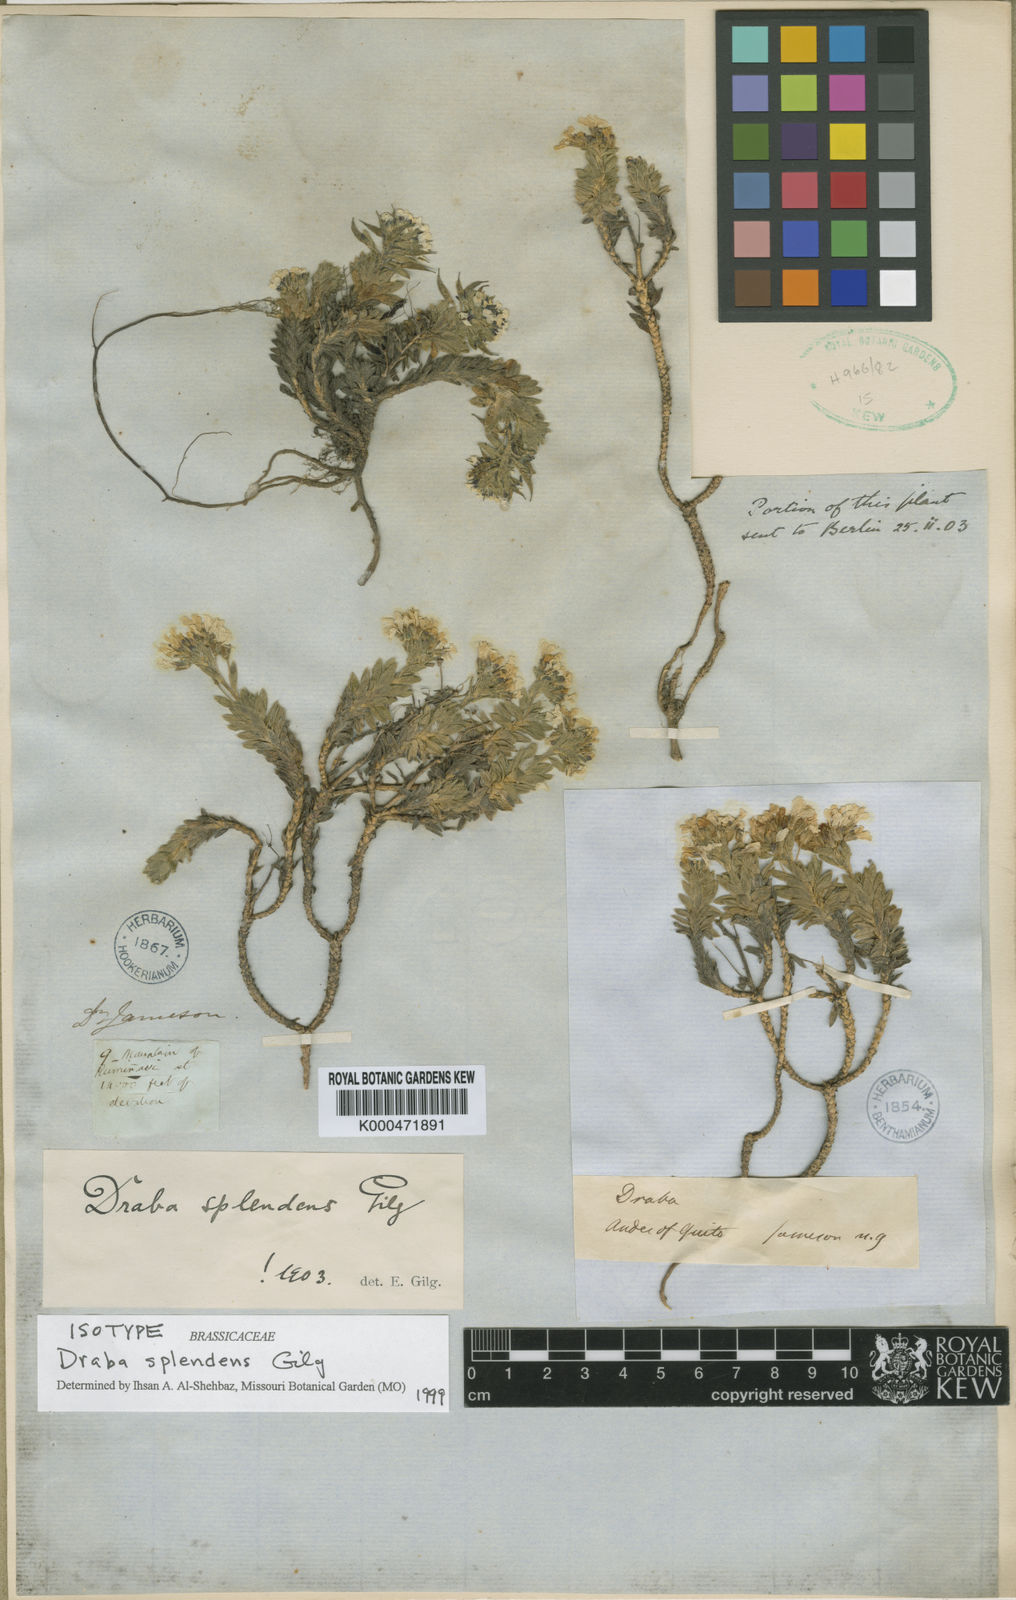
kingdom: Plantae
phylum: Tracheophyta
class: Magnoliopsida
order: Brassicales
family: Brassicaceae
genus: Draba
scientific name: Draba splendens
